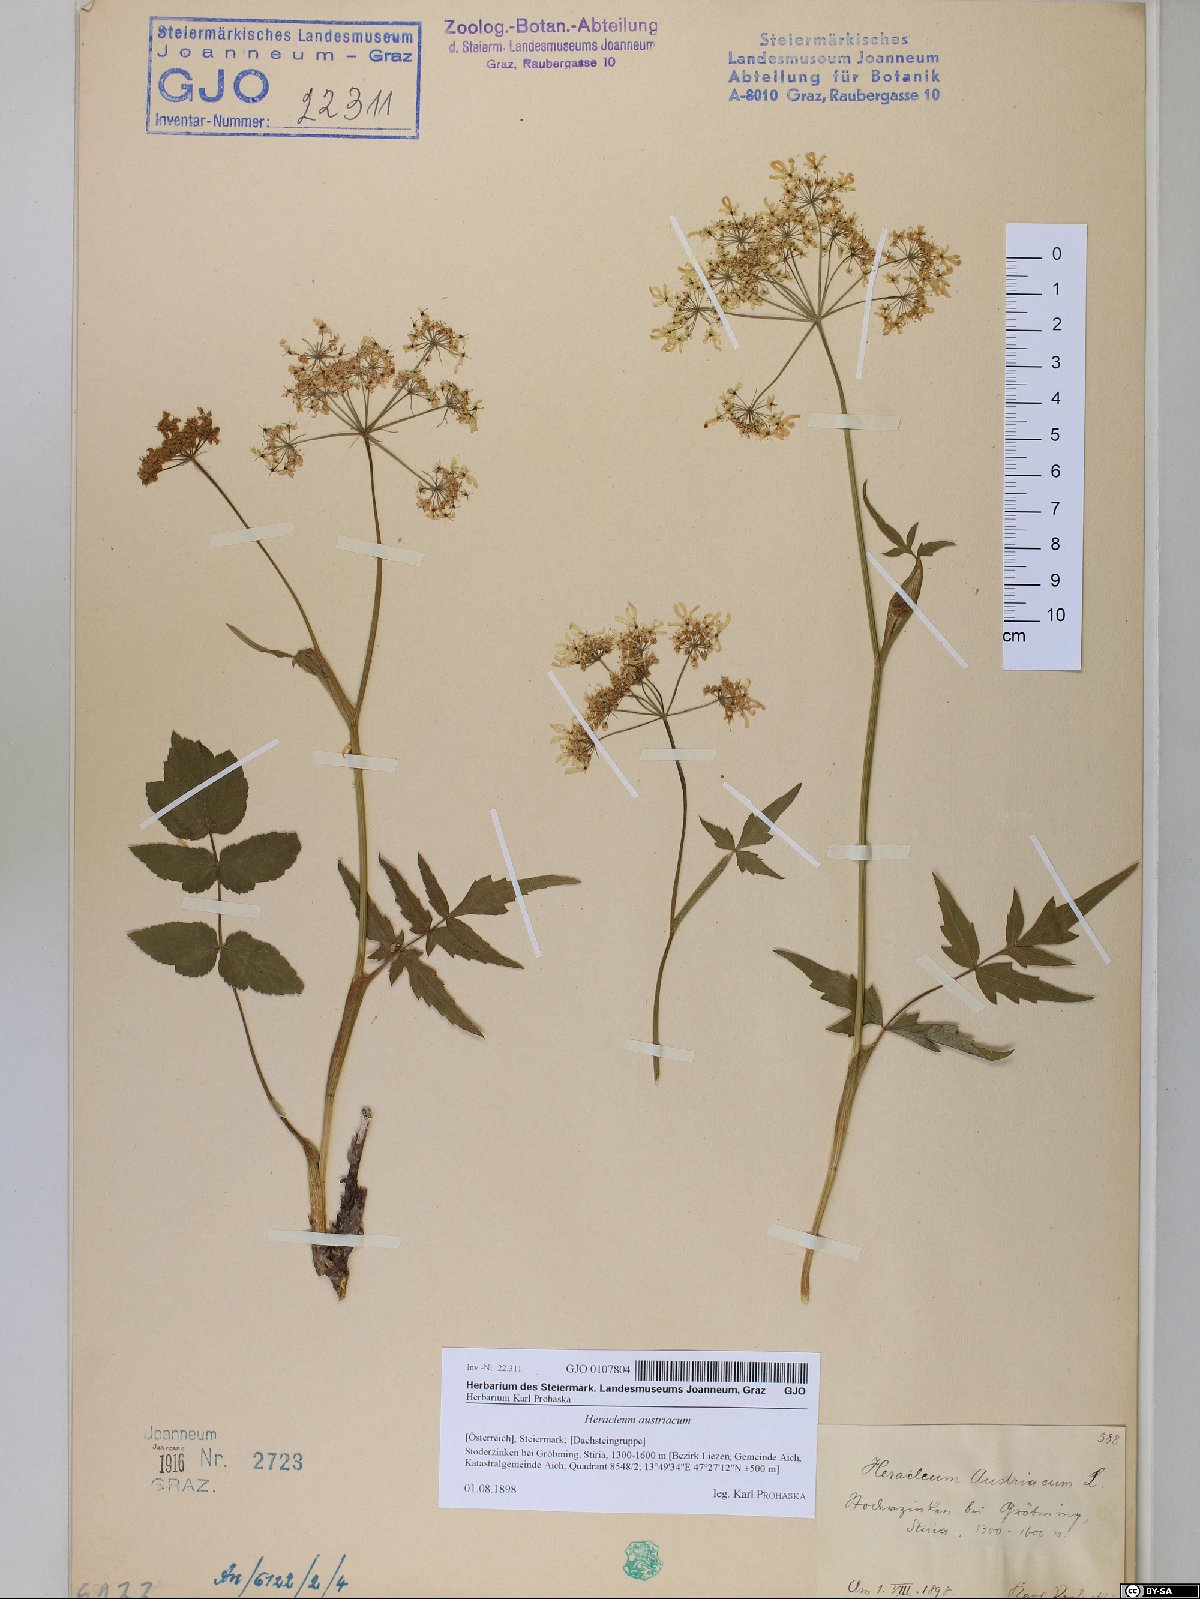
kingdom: Plantae
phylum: Tracheophyta
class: Magnoliopsida
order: Apiales
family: Apiaceae
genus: Heracleum
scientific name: Heracleum austriacum
